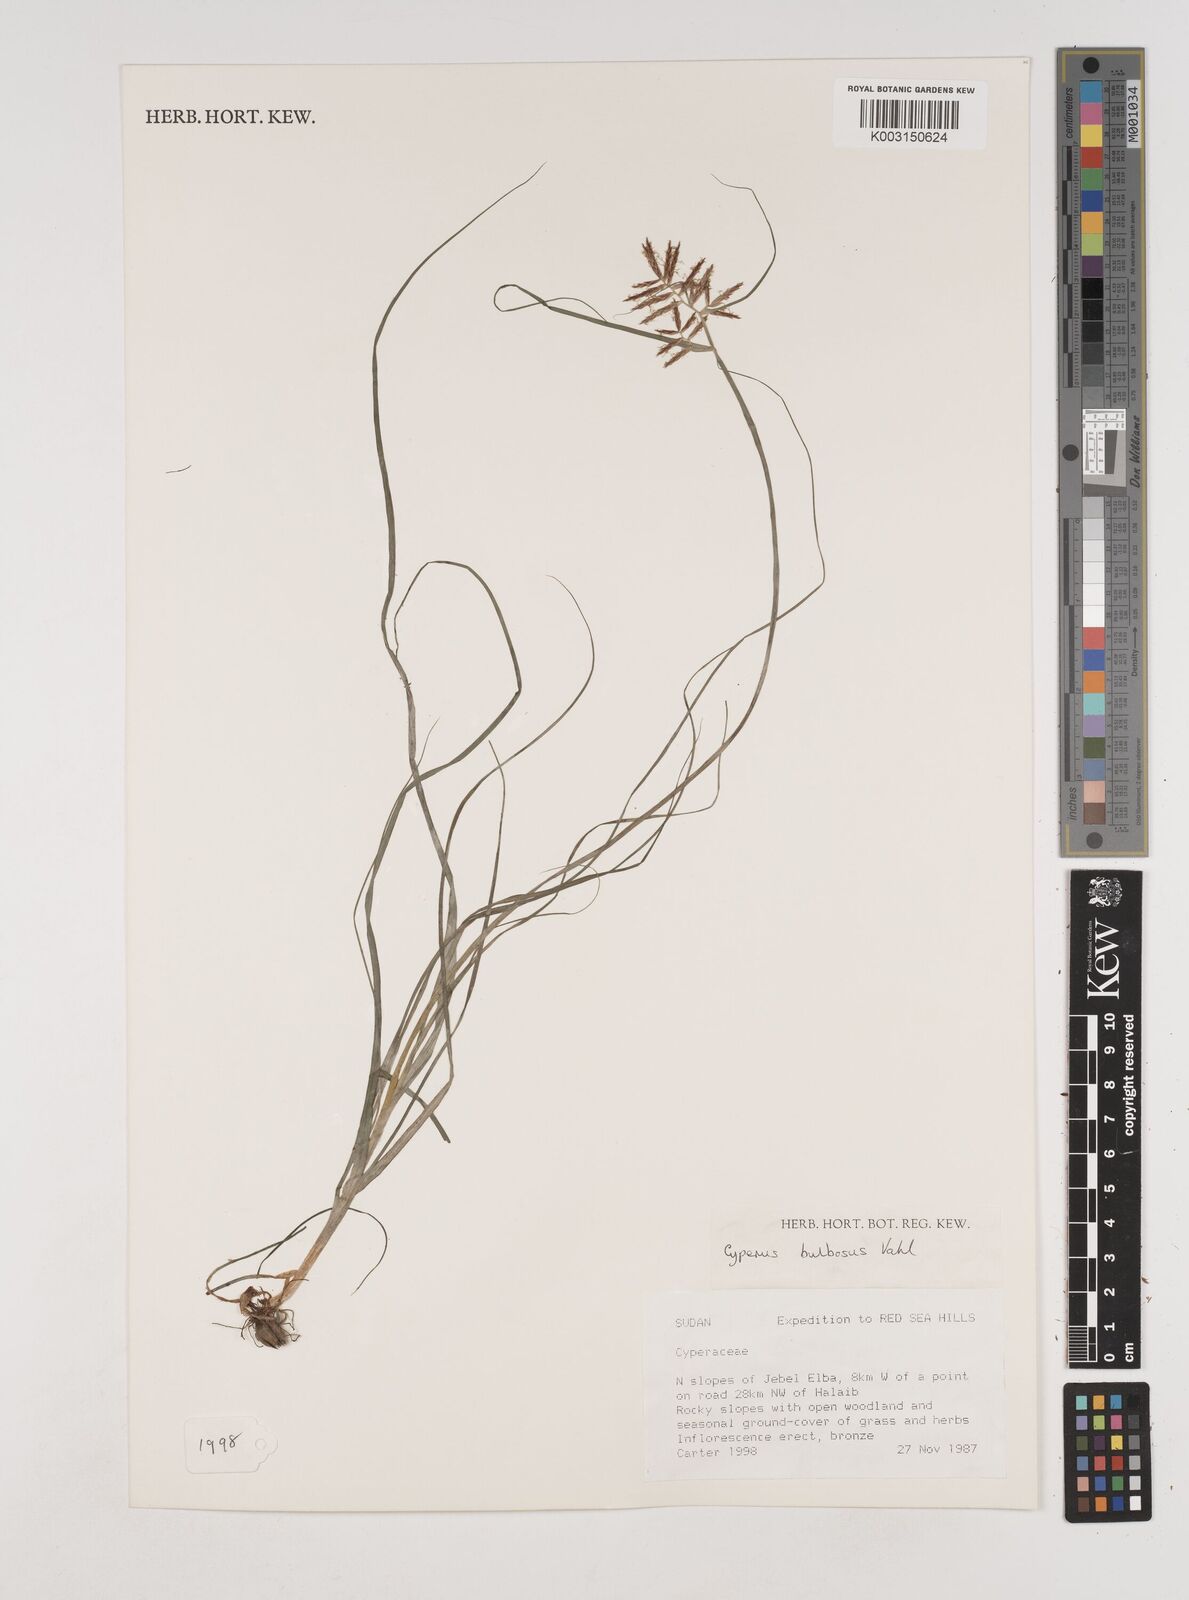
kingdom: Plantae
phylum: Tracheophyta
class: Liliopsida
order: Poales
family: Cyperaceae
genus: Cyperus
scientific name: Cyperus bulbosus
